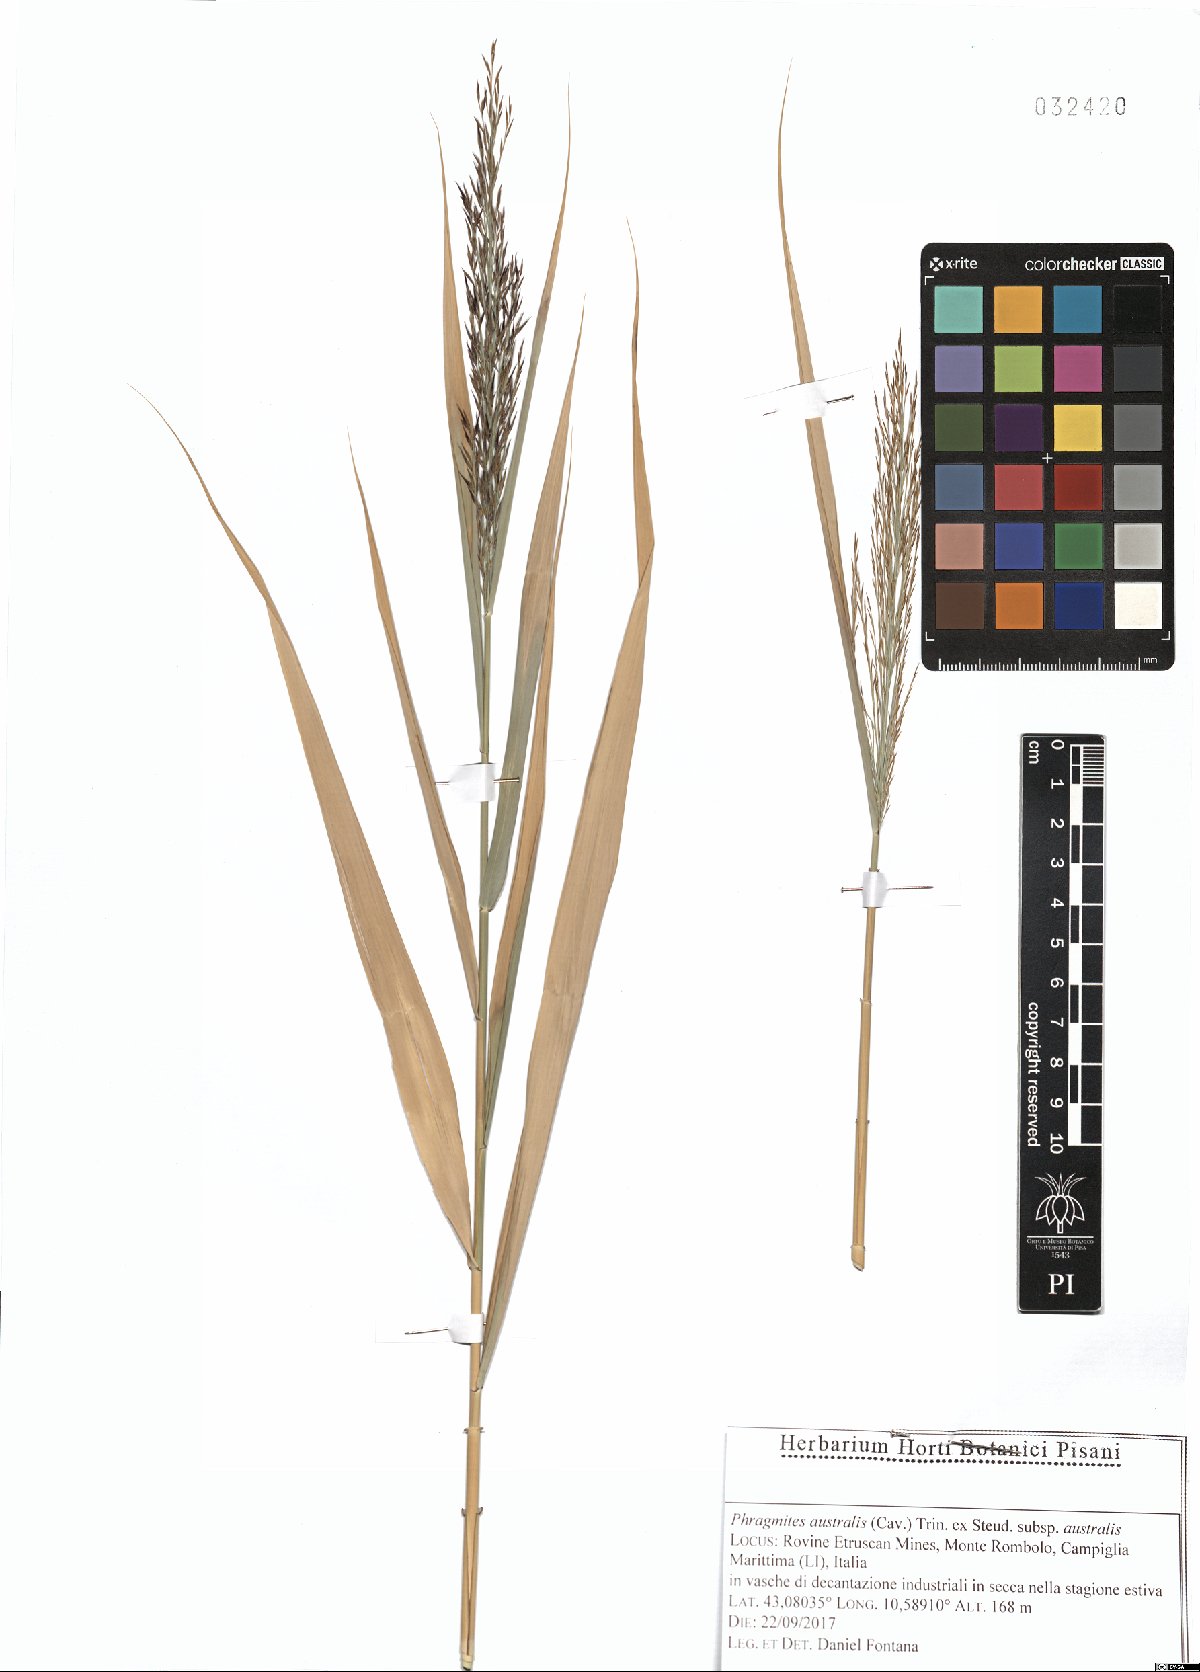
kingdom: Plantae
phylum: Tracheophyta
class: Liliopsida
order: Poales
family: Poaceae
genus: Phragmites
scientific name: Phragmites australis
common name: Common reed
